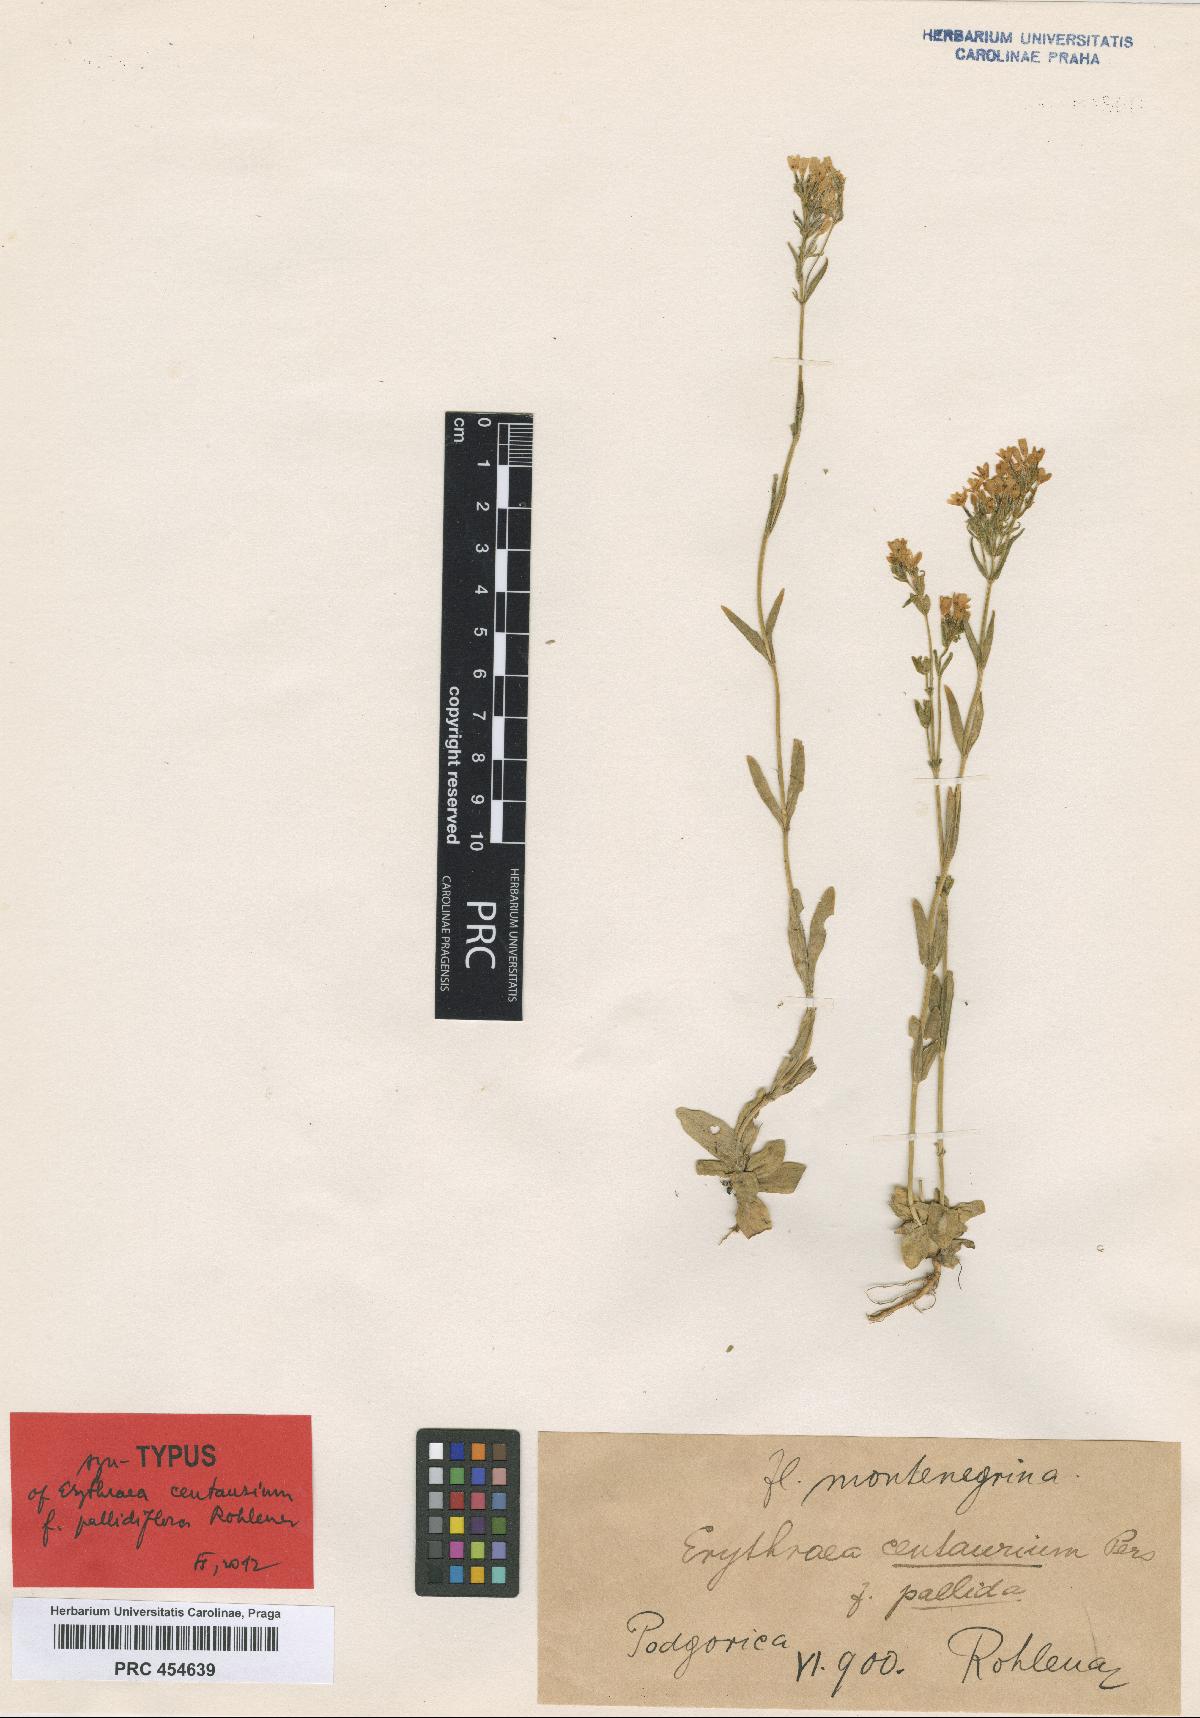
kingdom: Plantae
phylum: Tracheophyta
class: Magnoliopsida
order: Gentianales
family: Gentianaceae
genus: Centaurium
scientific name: Centaurium erythraea
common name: Common centaury
